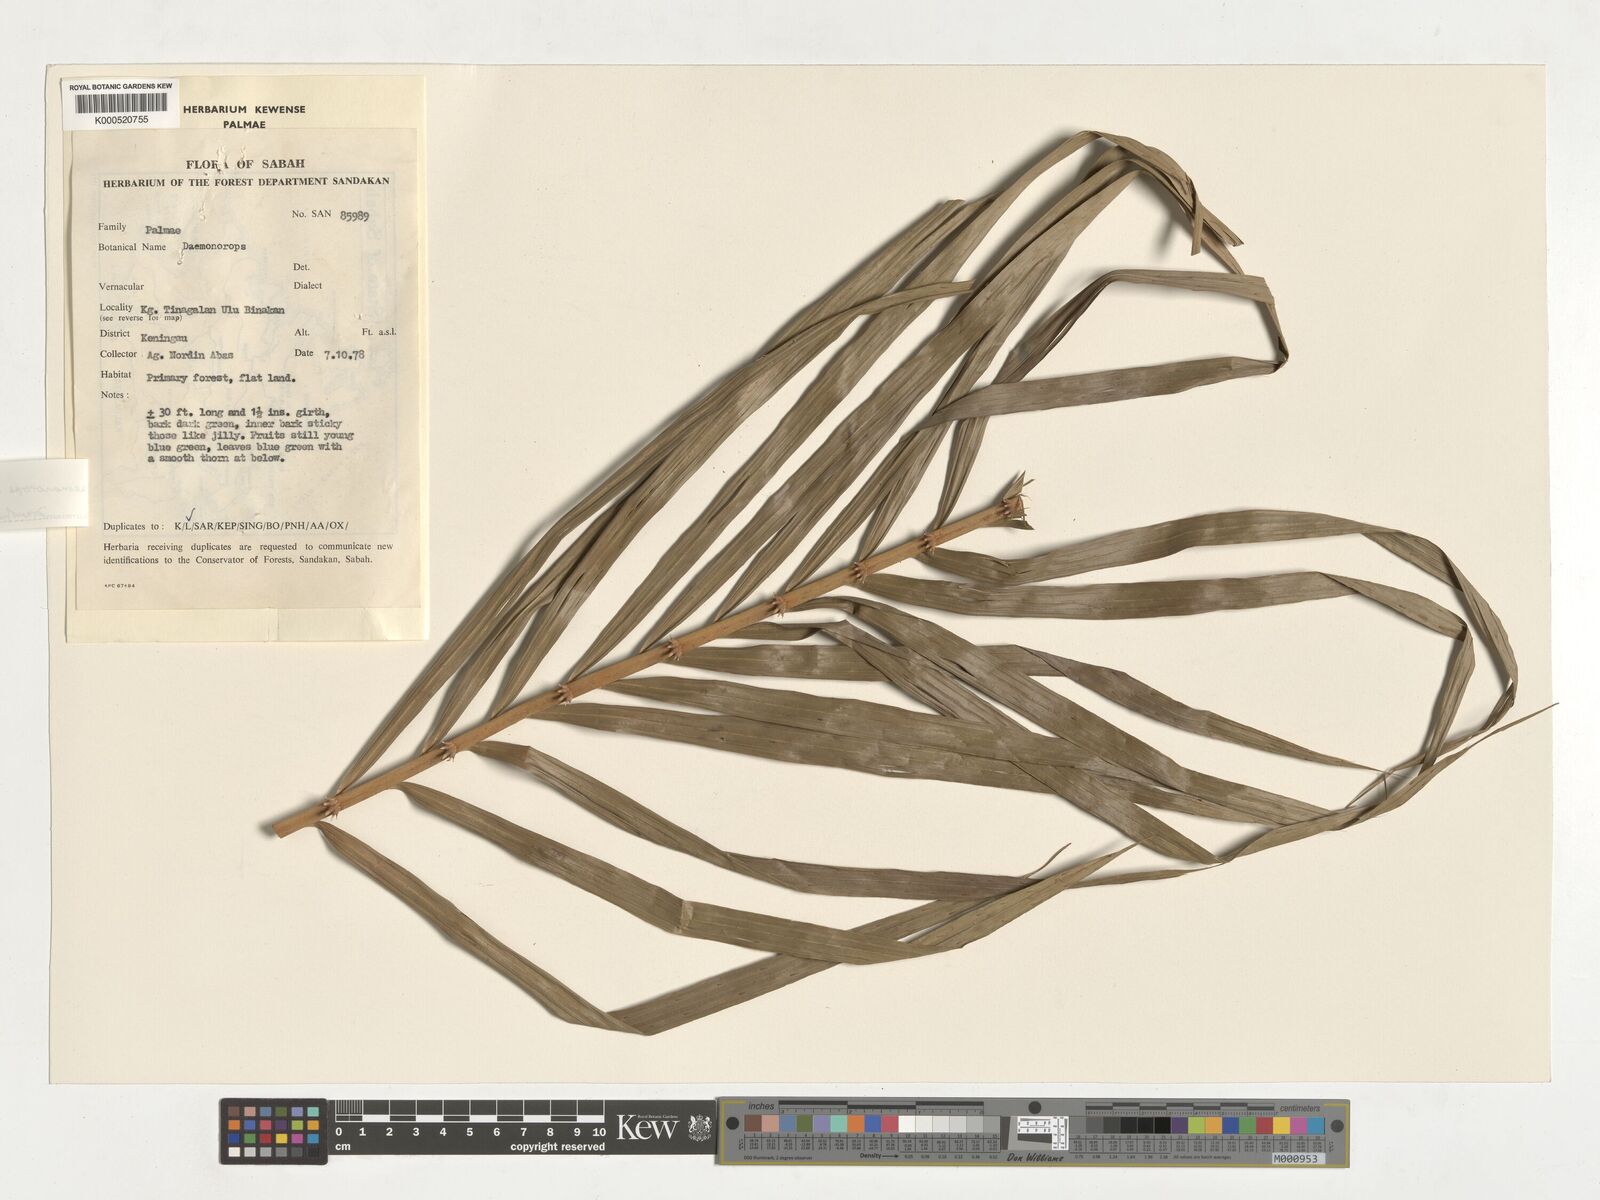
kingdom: Plantae
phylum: Tracheophyta
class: Liliopsida
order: Arecales
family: Arecaceae
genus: Calamus
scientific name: Calamus hirsutus
